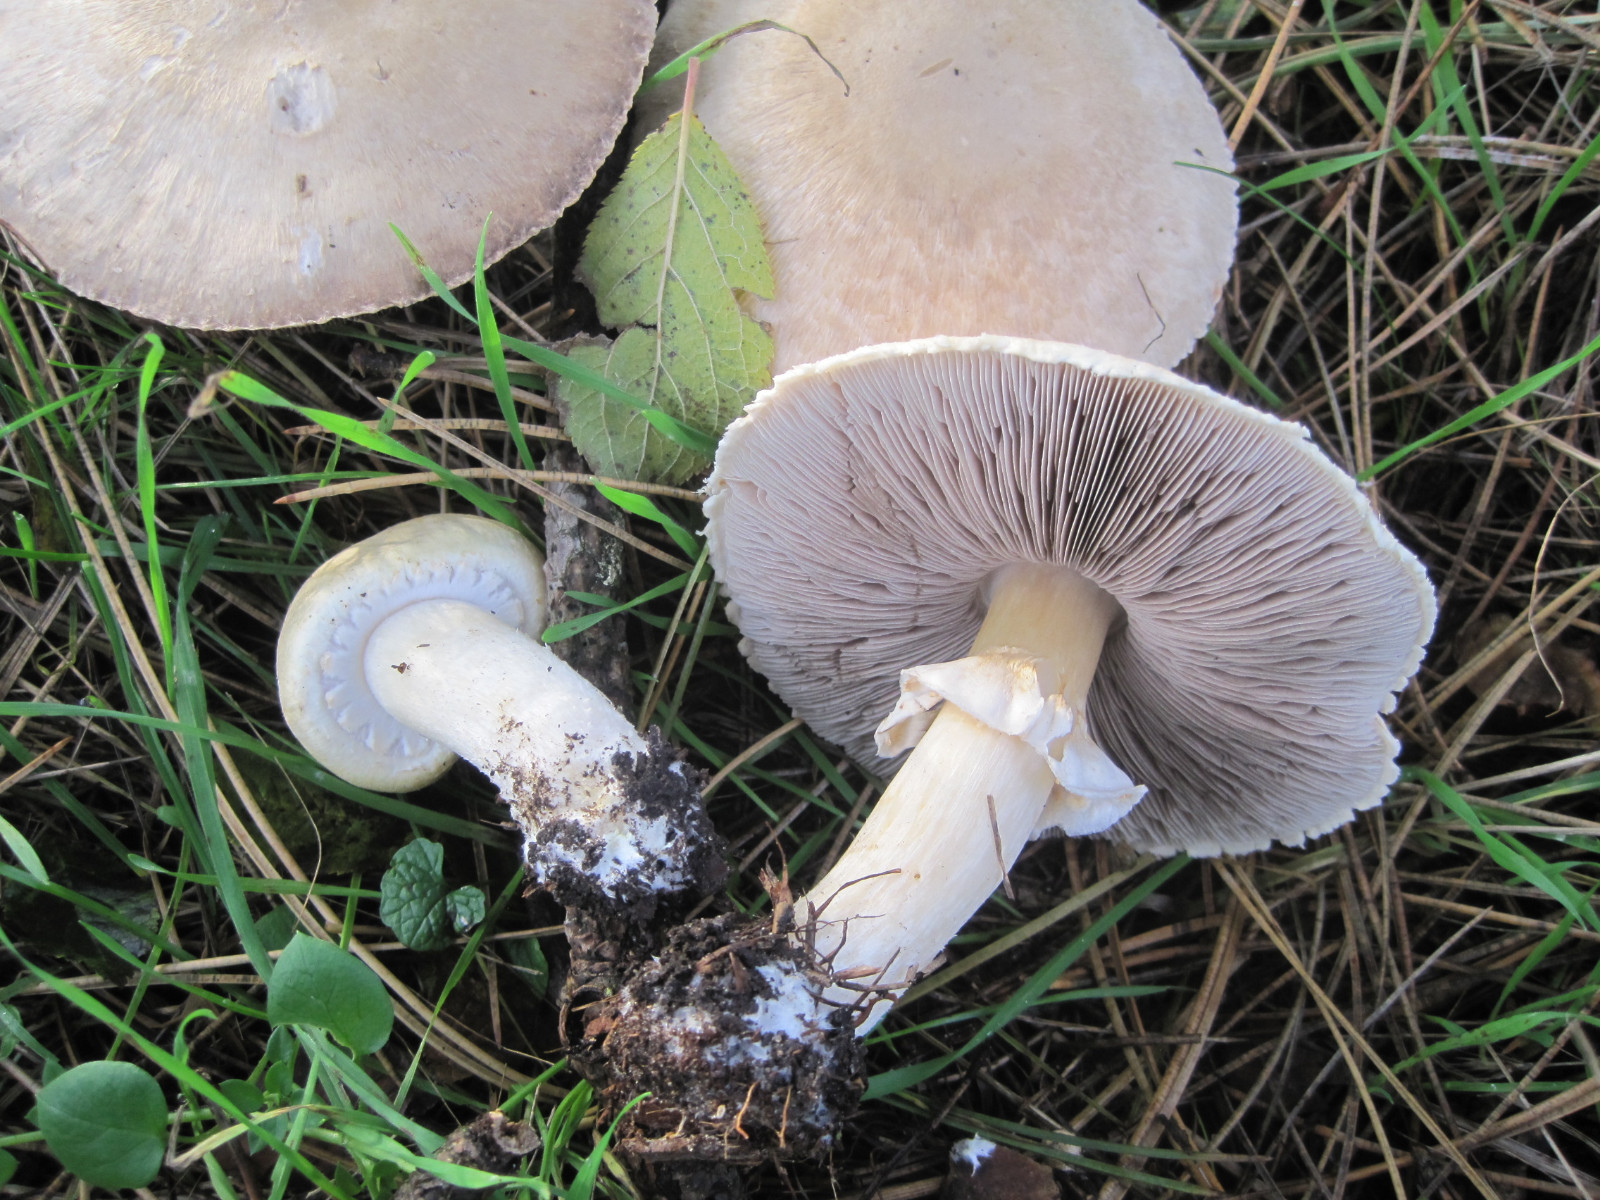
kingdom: Fungi
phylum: Basidiomycota
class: Agaricomycetes
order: Agaricales
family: Agaricaceae
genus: Agaricus
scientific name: Agaricus arvensis
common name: ager-champignon
